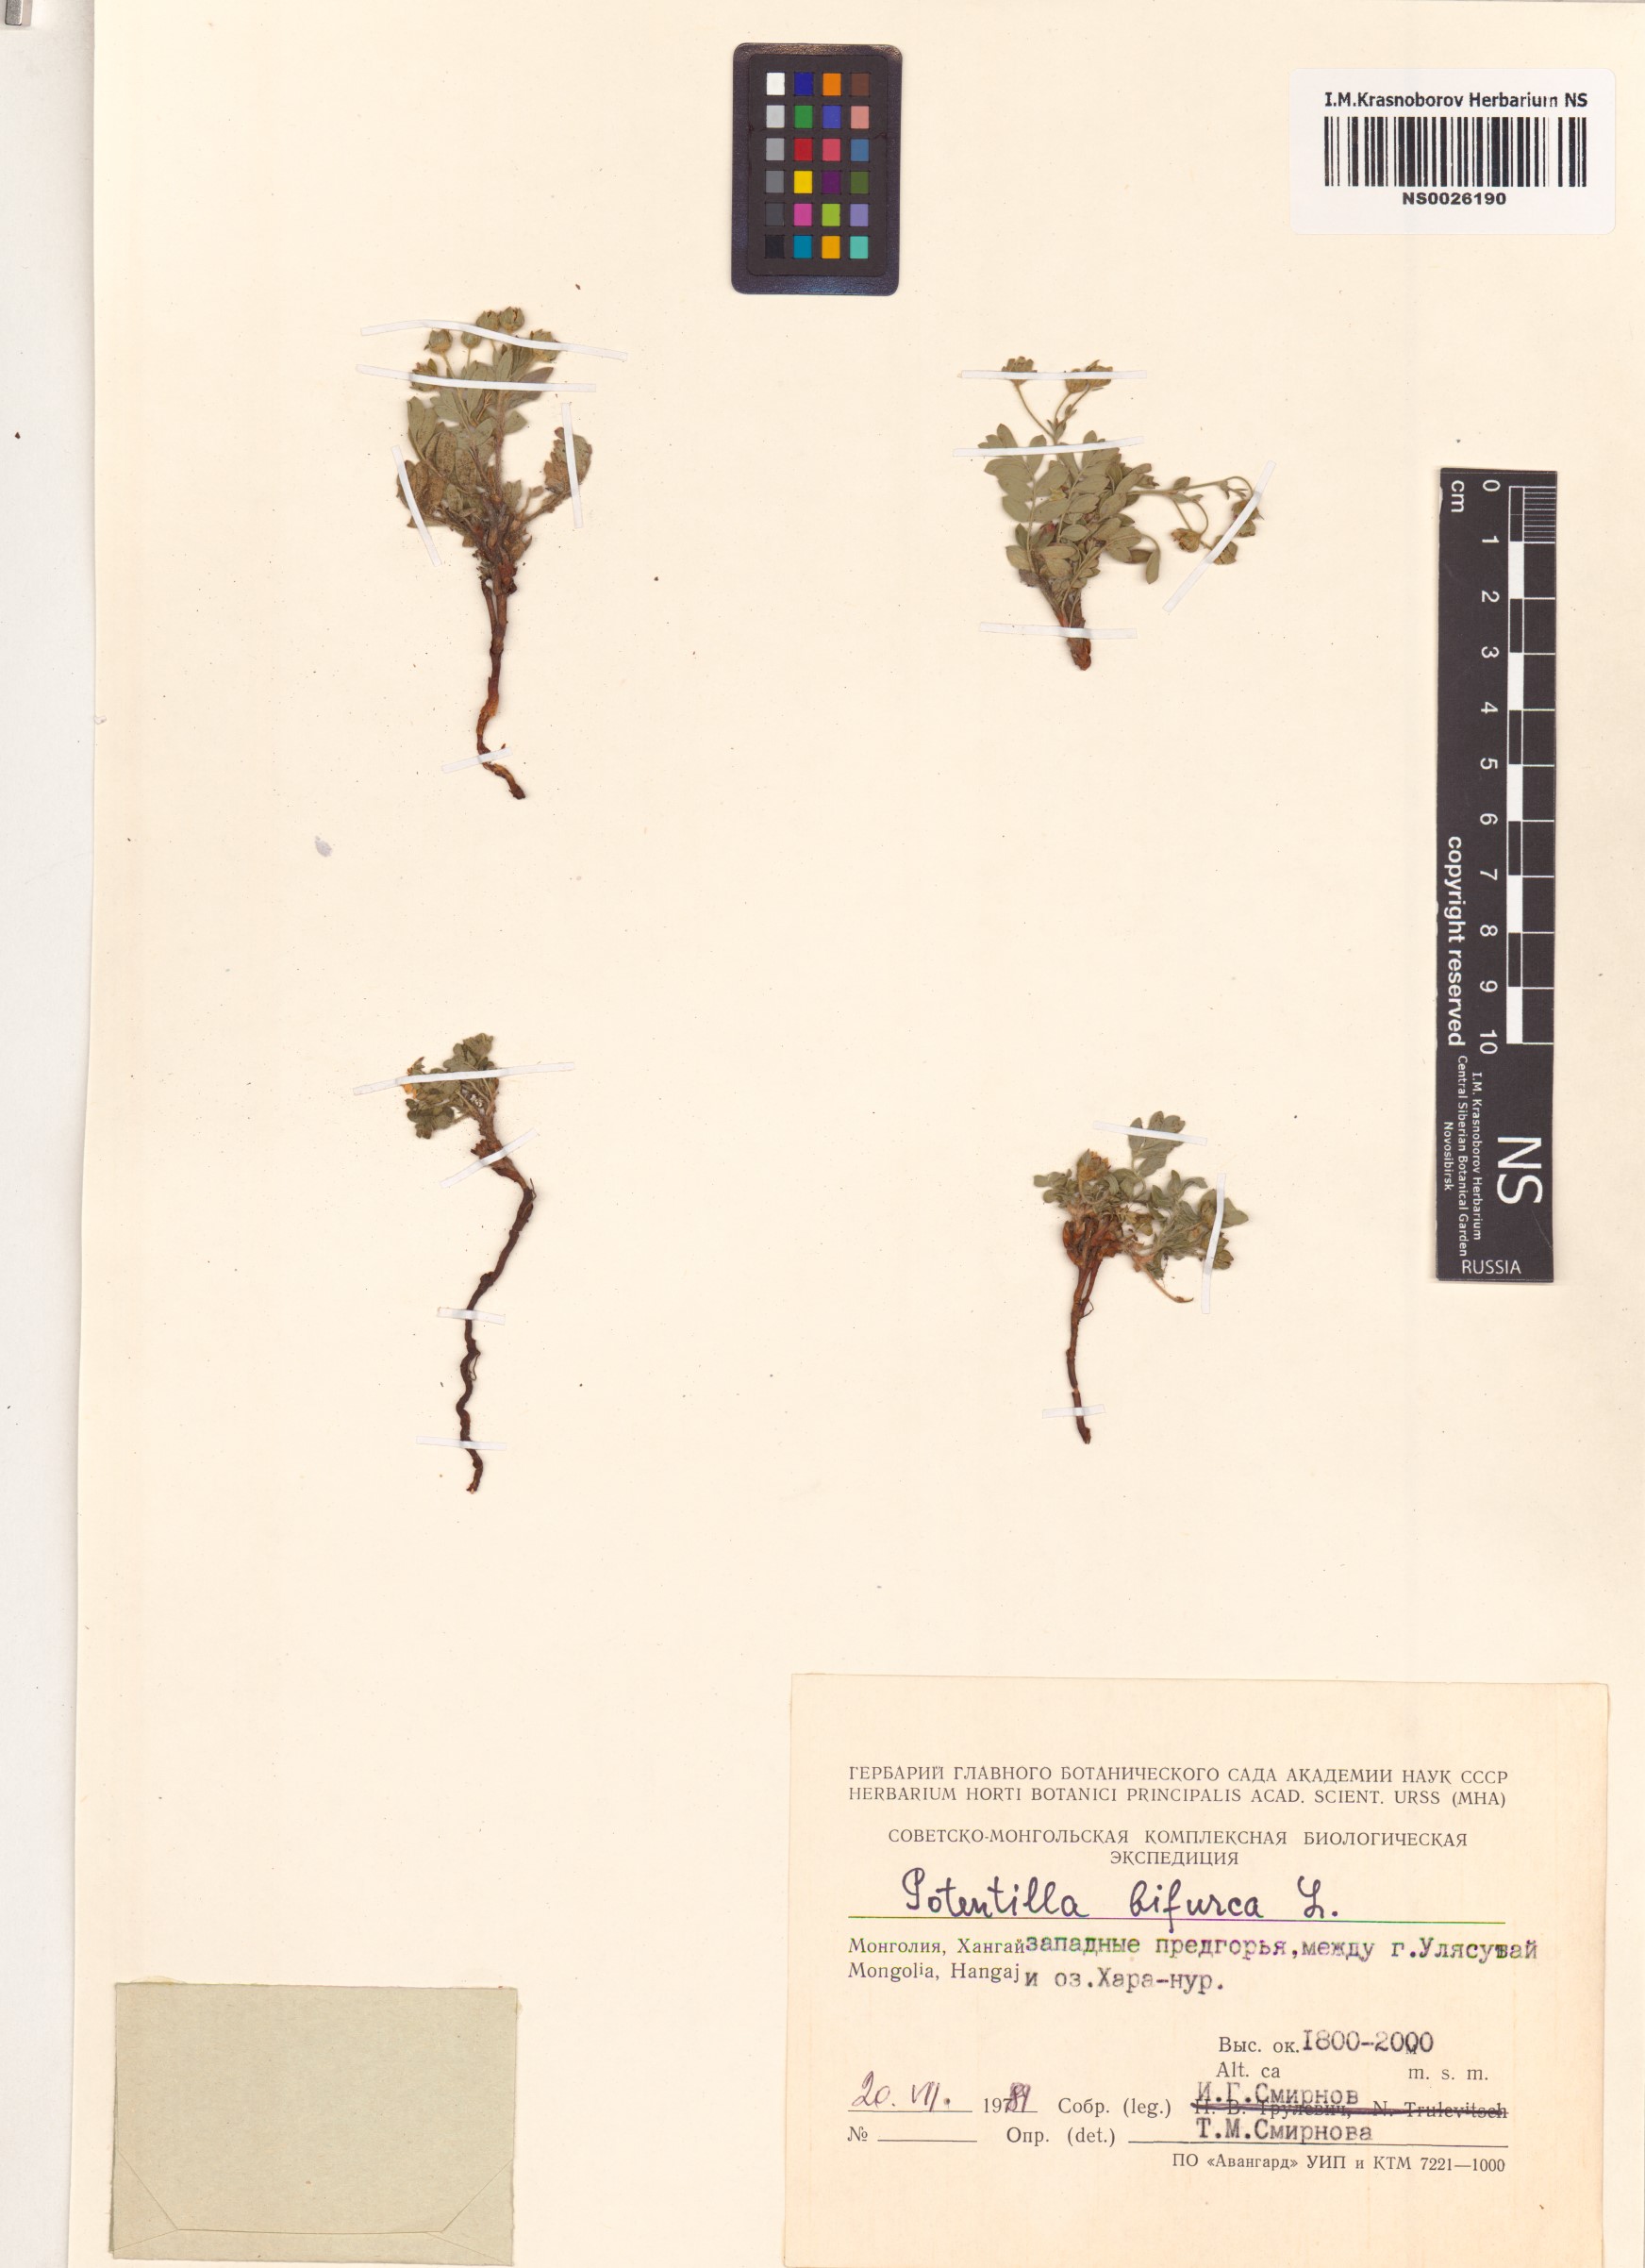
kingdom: Plantae
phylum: Tracheophyta
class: Magnoliopsida
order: Rosales
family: Rosaceae
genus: Sibbaldianthe
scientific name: Sibbaldianthe bifurca
